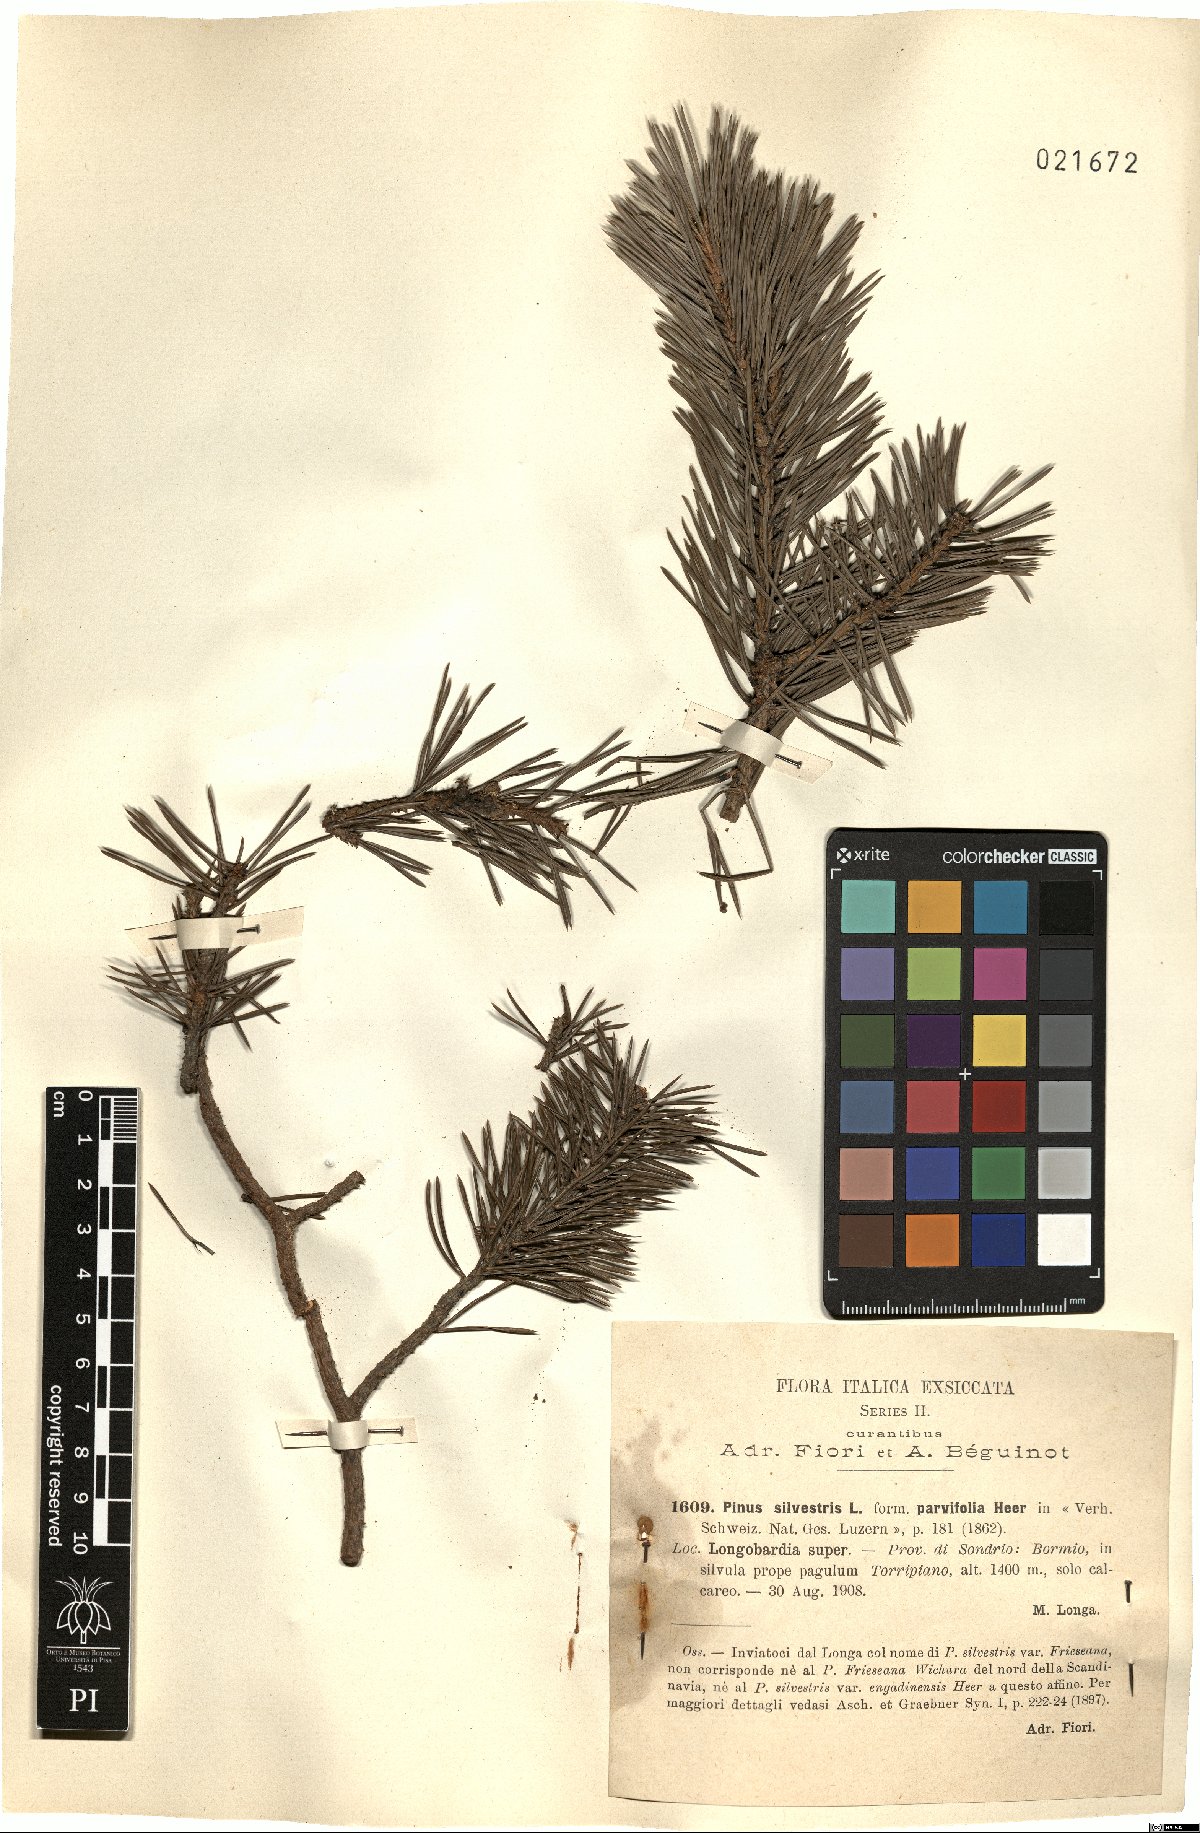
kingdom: Plantae
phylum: Tracheophyta
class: Pinopsida
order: Pinales
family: Pinaceae
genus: Pinus
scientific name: Pinus sylvestris
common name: Scots pine
